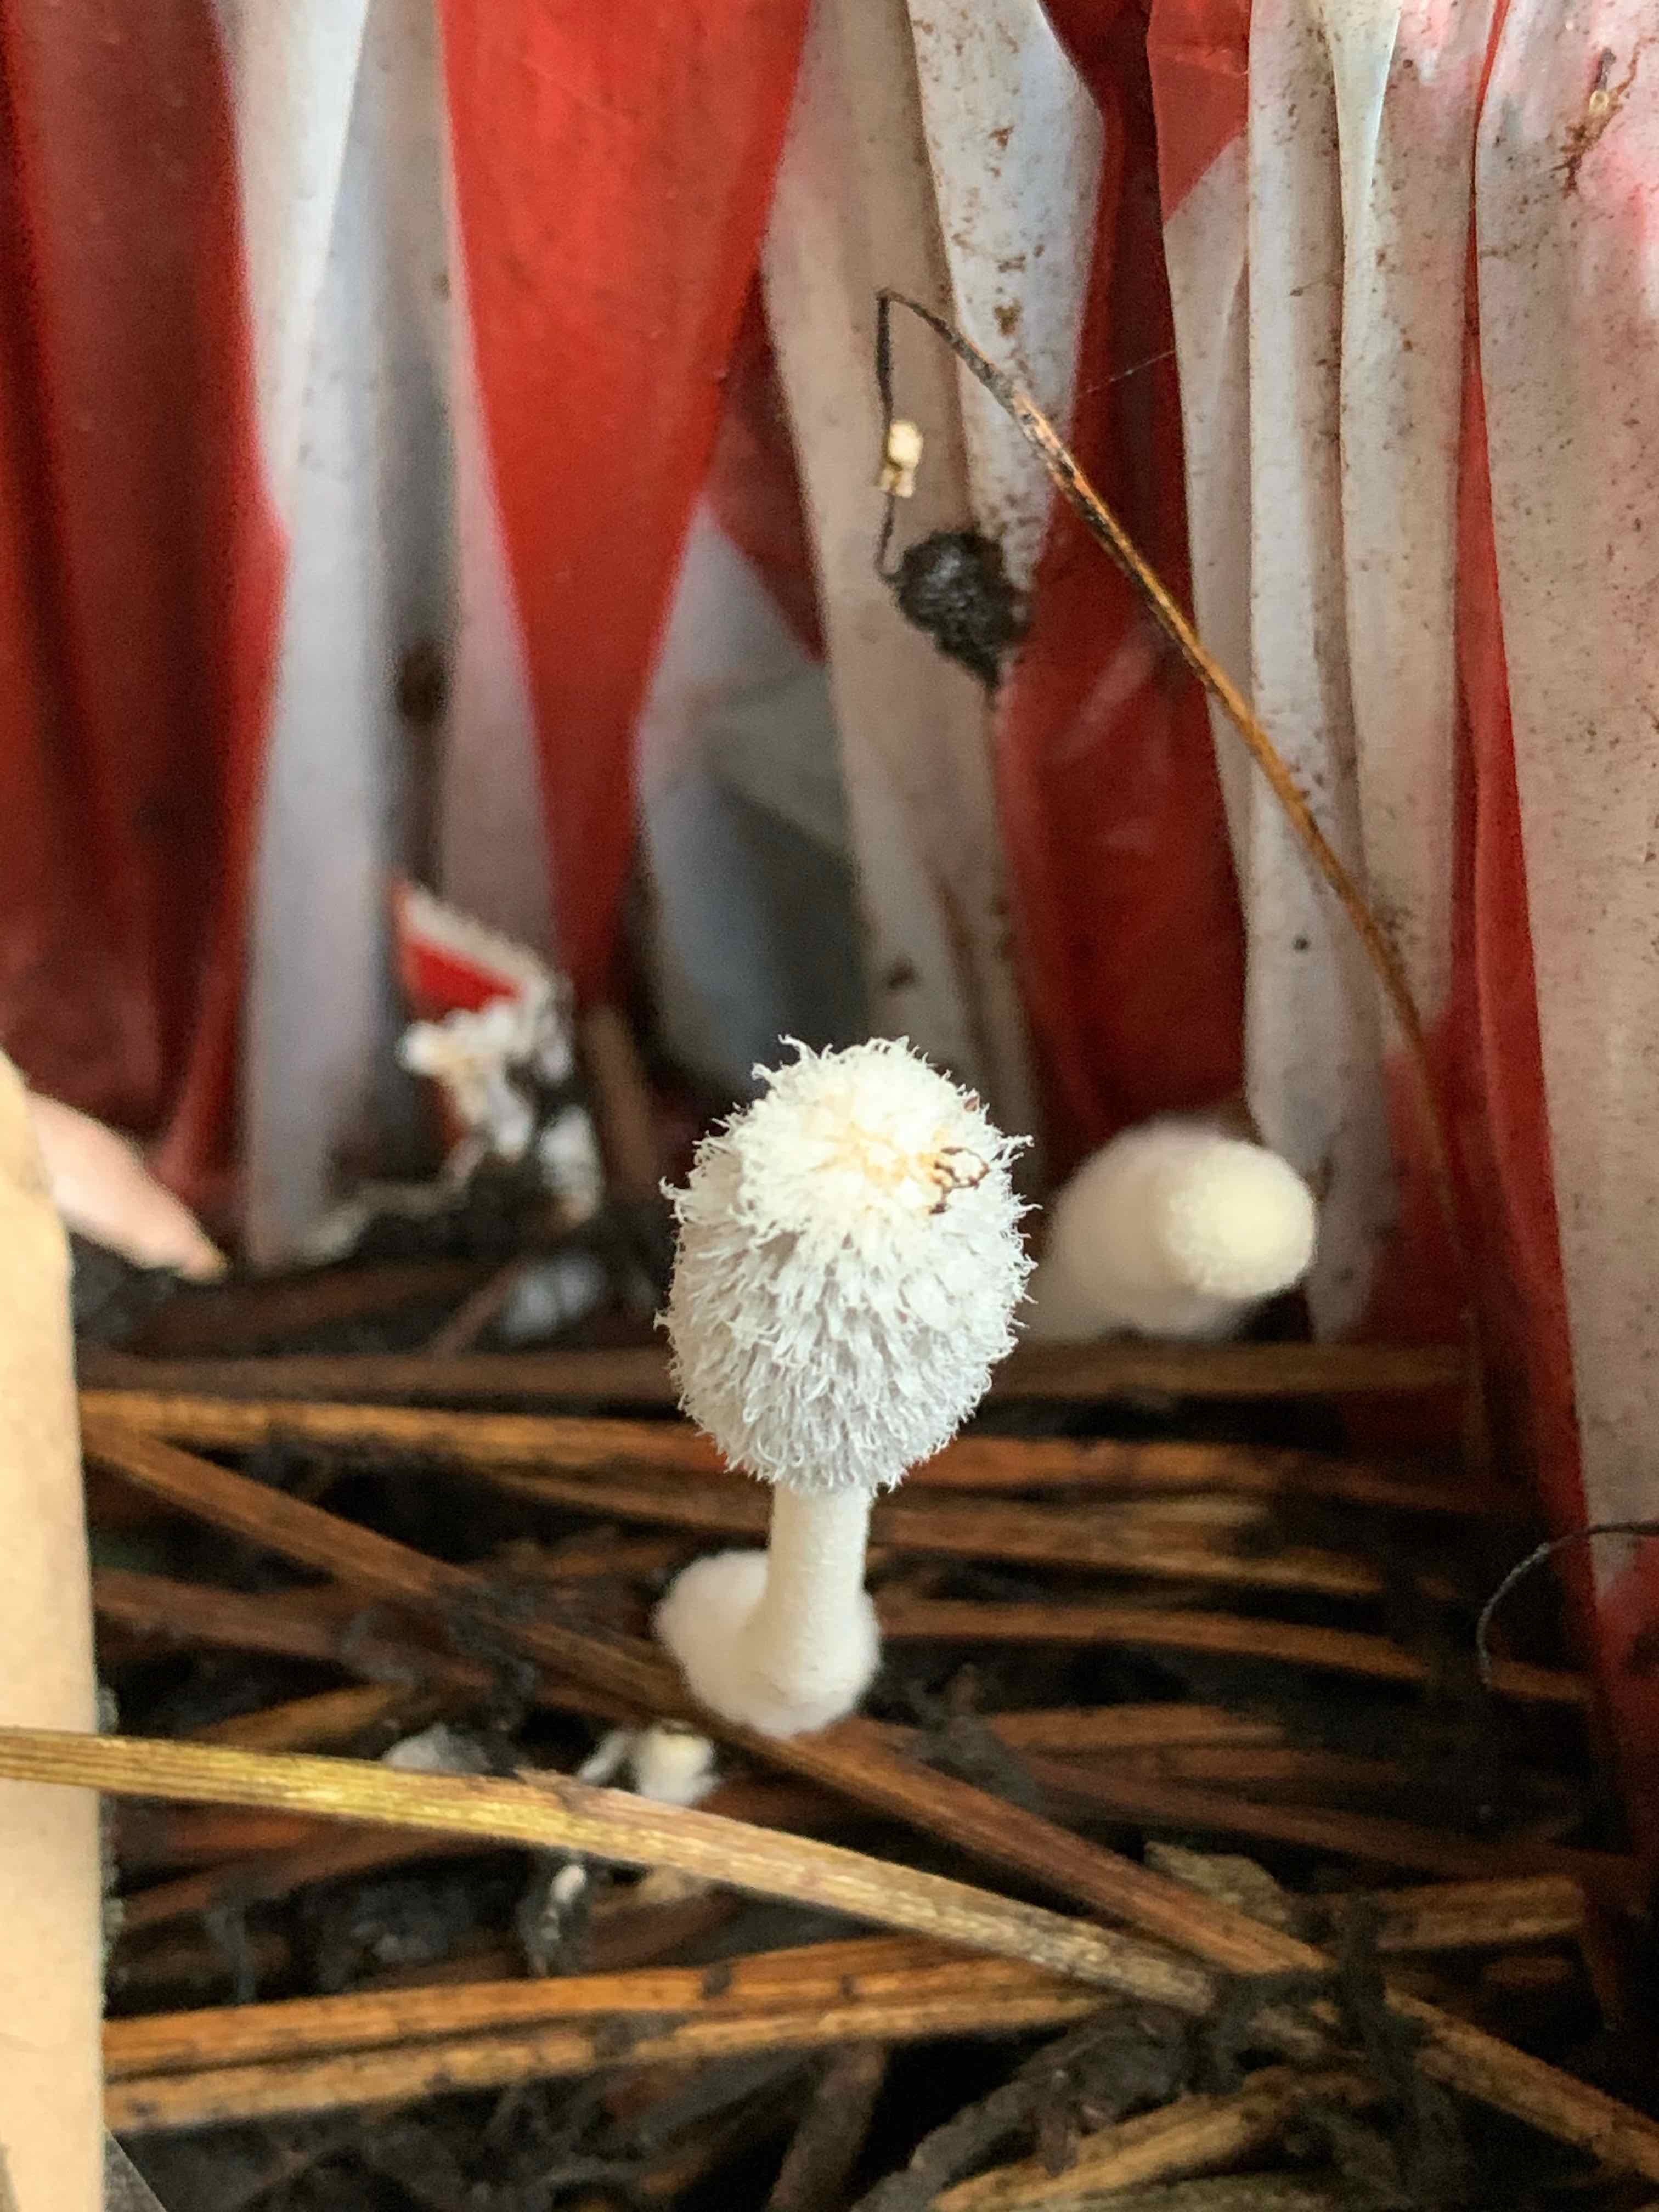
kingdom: Fungi
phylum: Basidiomycota
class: Agaricomycetes
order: Agaricales
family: Psathyrellaceae
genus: Coprinopsis
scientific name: Coprinopsis
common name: blækhat
